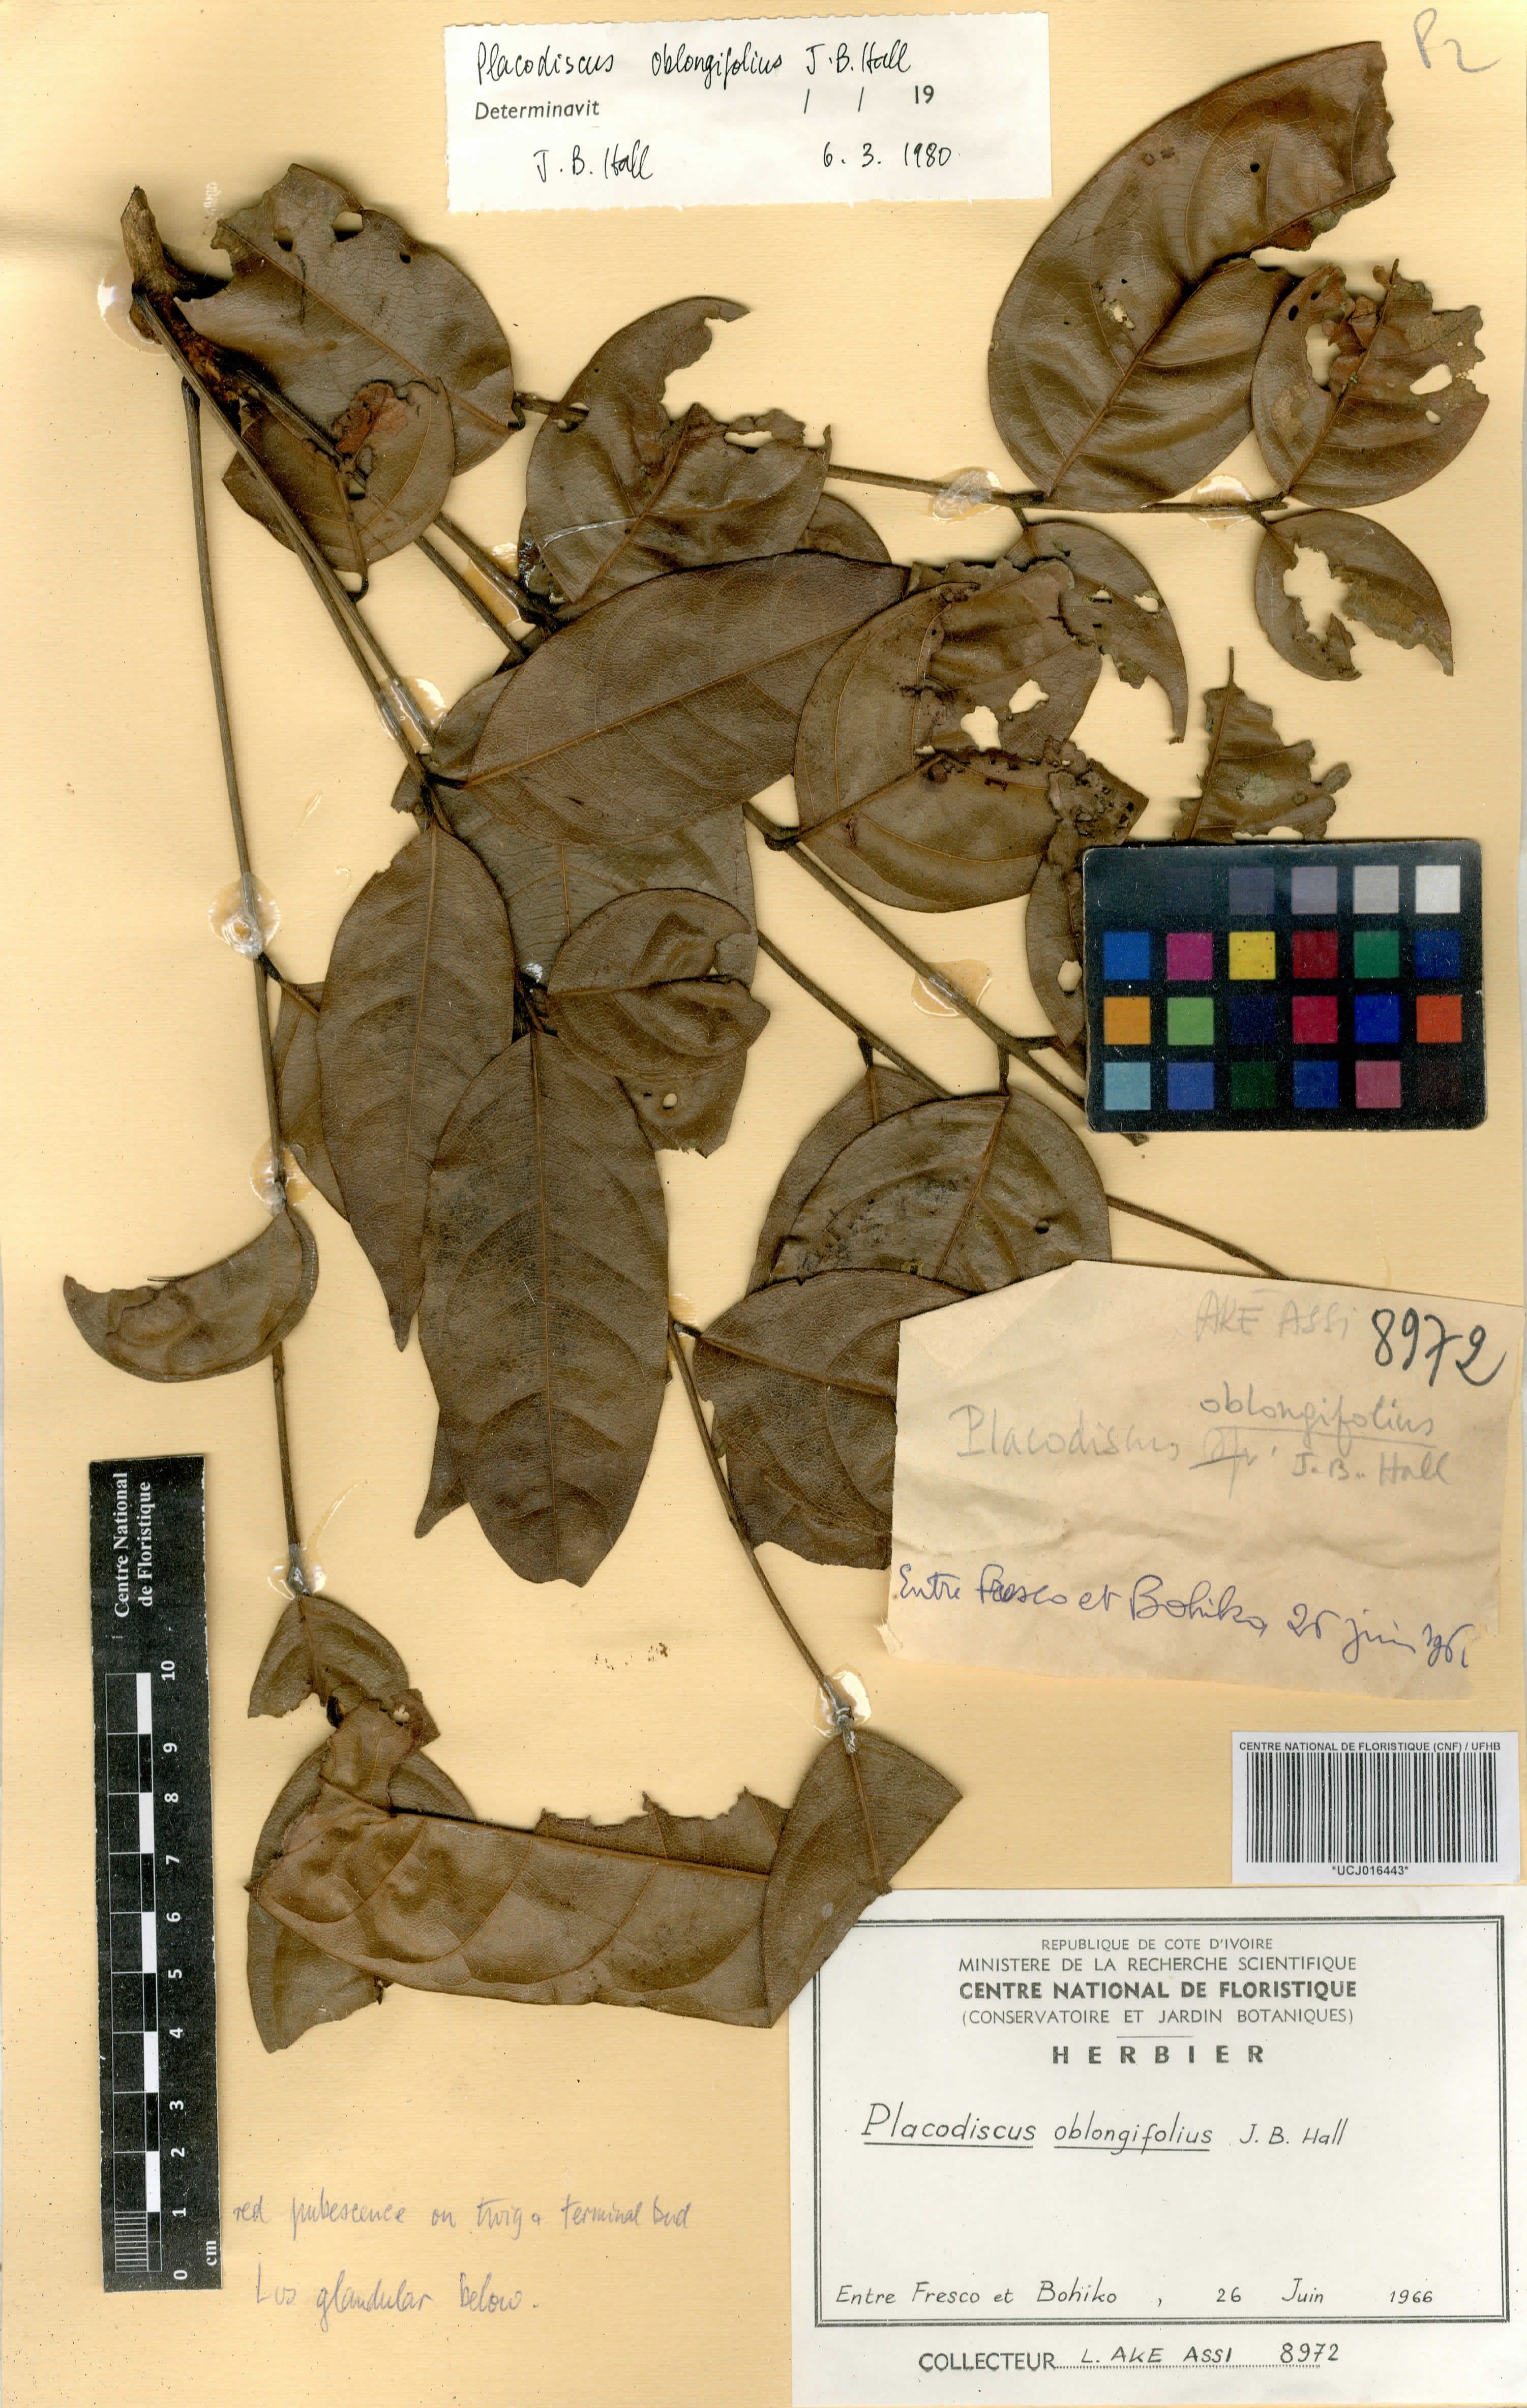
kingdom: Plantae
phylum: Tracheophyta
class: Magnoliopsida
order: Sapindales
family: Sapindaceae
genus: Placodiscus
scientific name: Placodiscus oblongifolius
